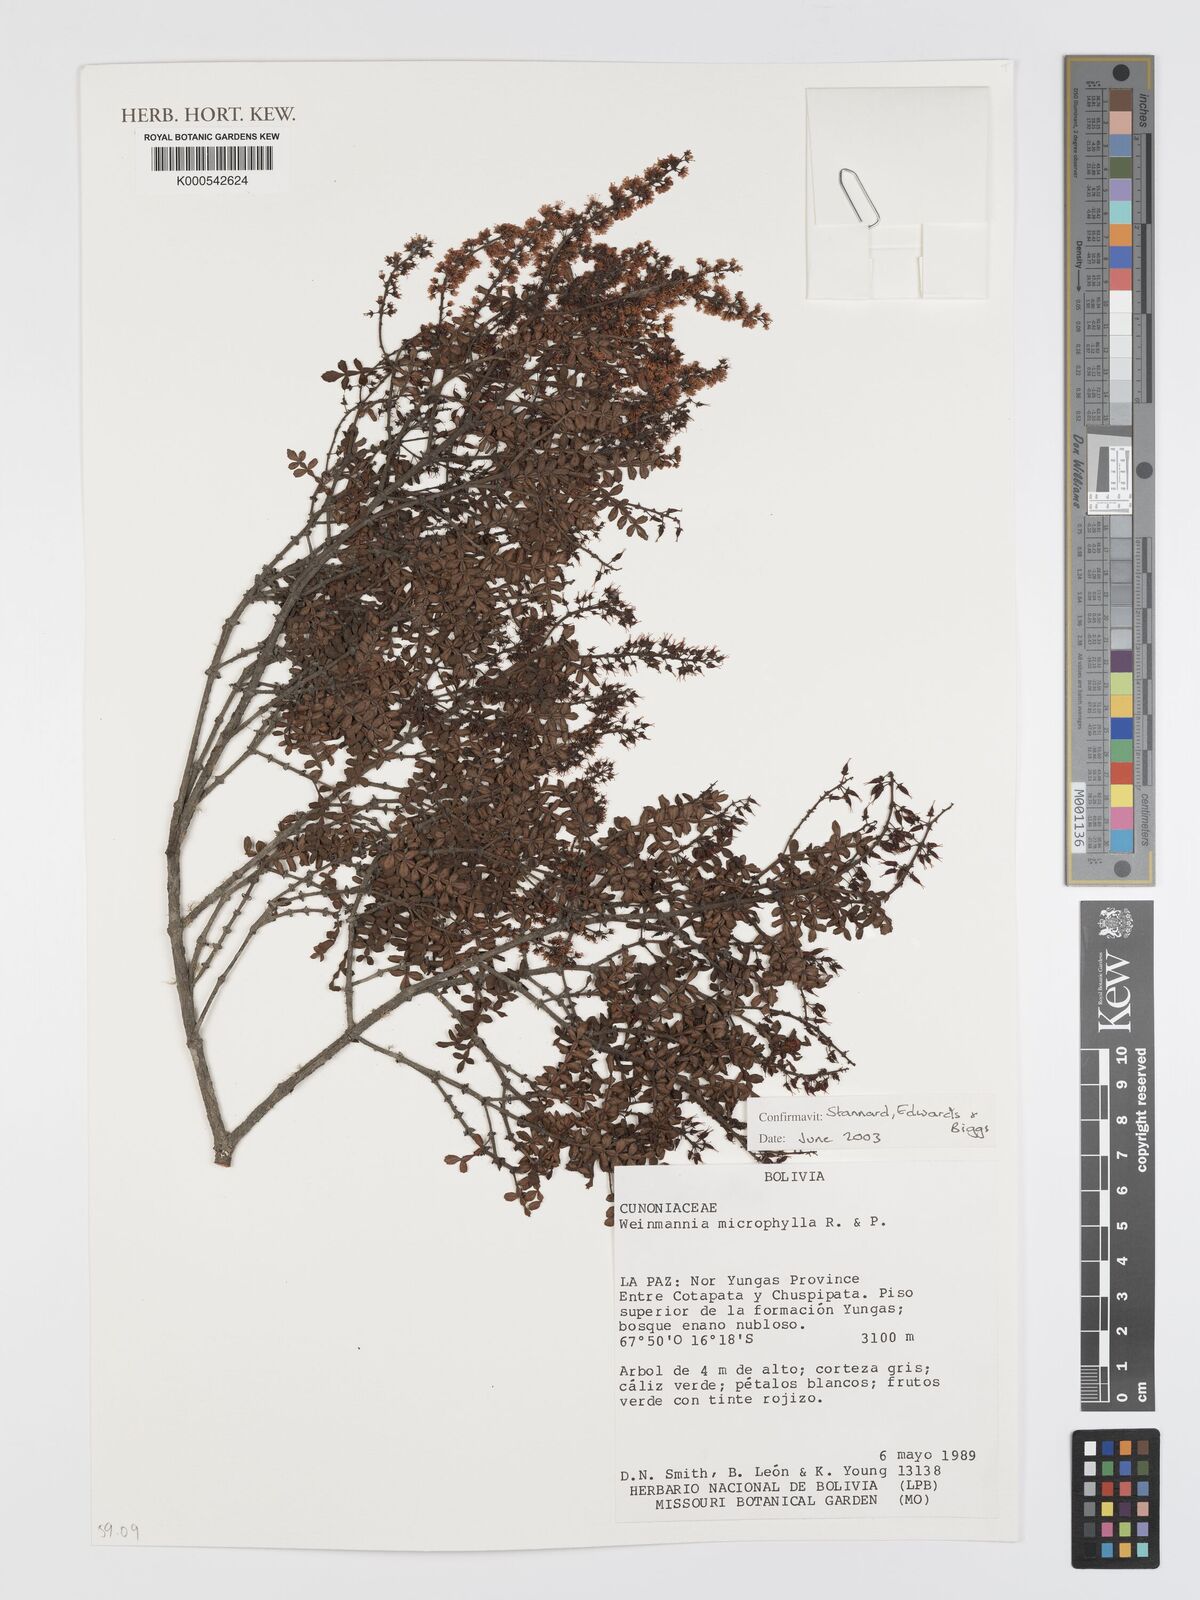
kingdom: Plantae
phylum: Tracheophyta
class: Magnoliopsida
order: Oxalidales
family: Cunoniaceae
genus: Weinmannia
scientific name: Weinmannia microphylla
